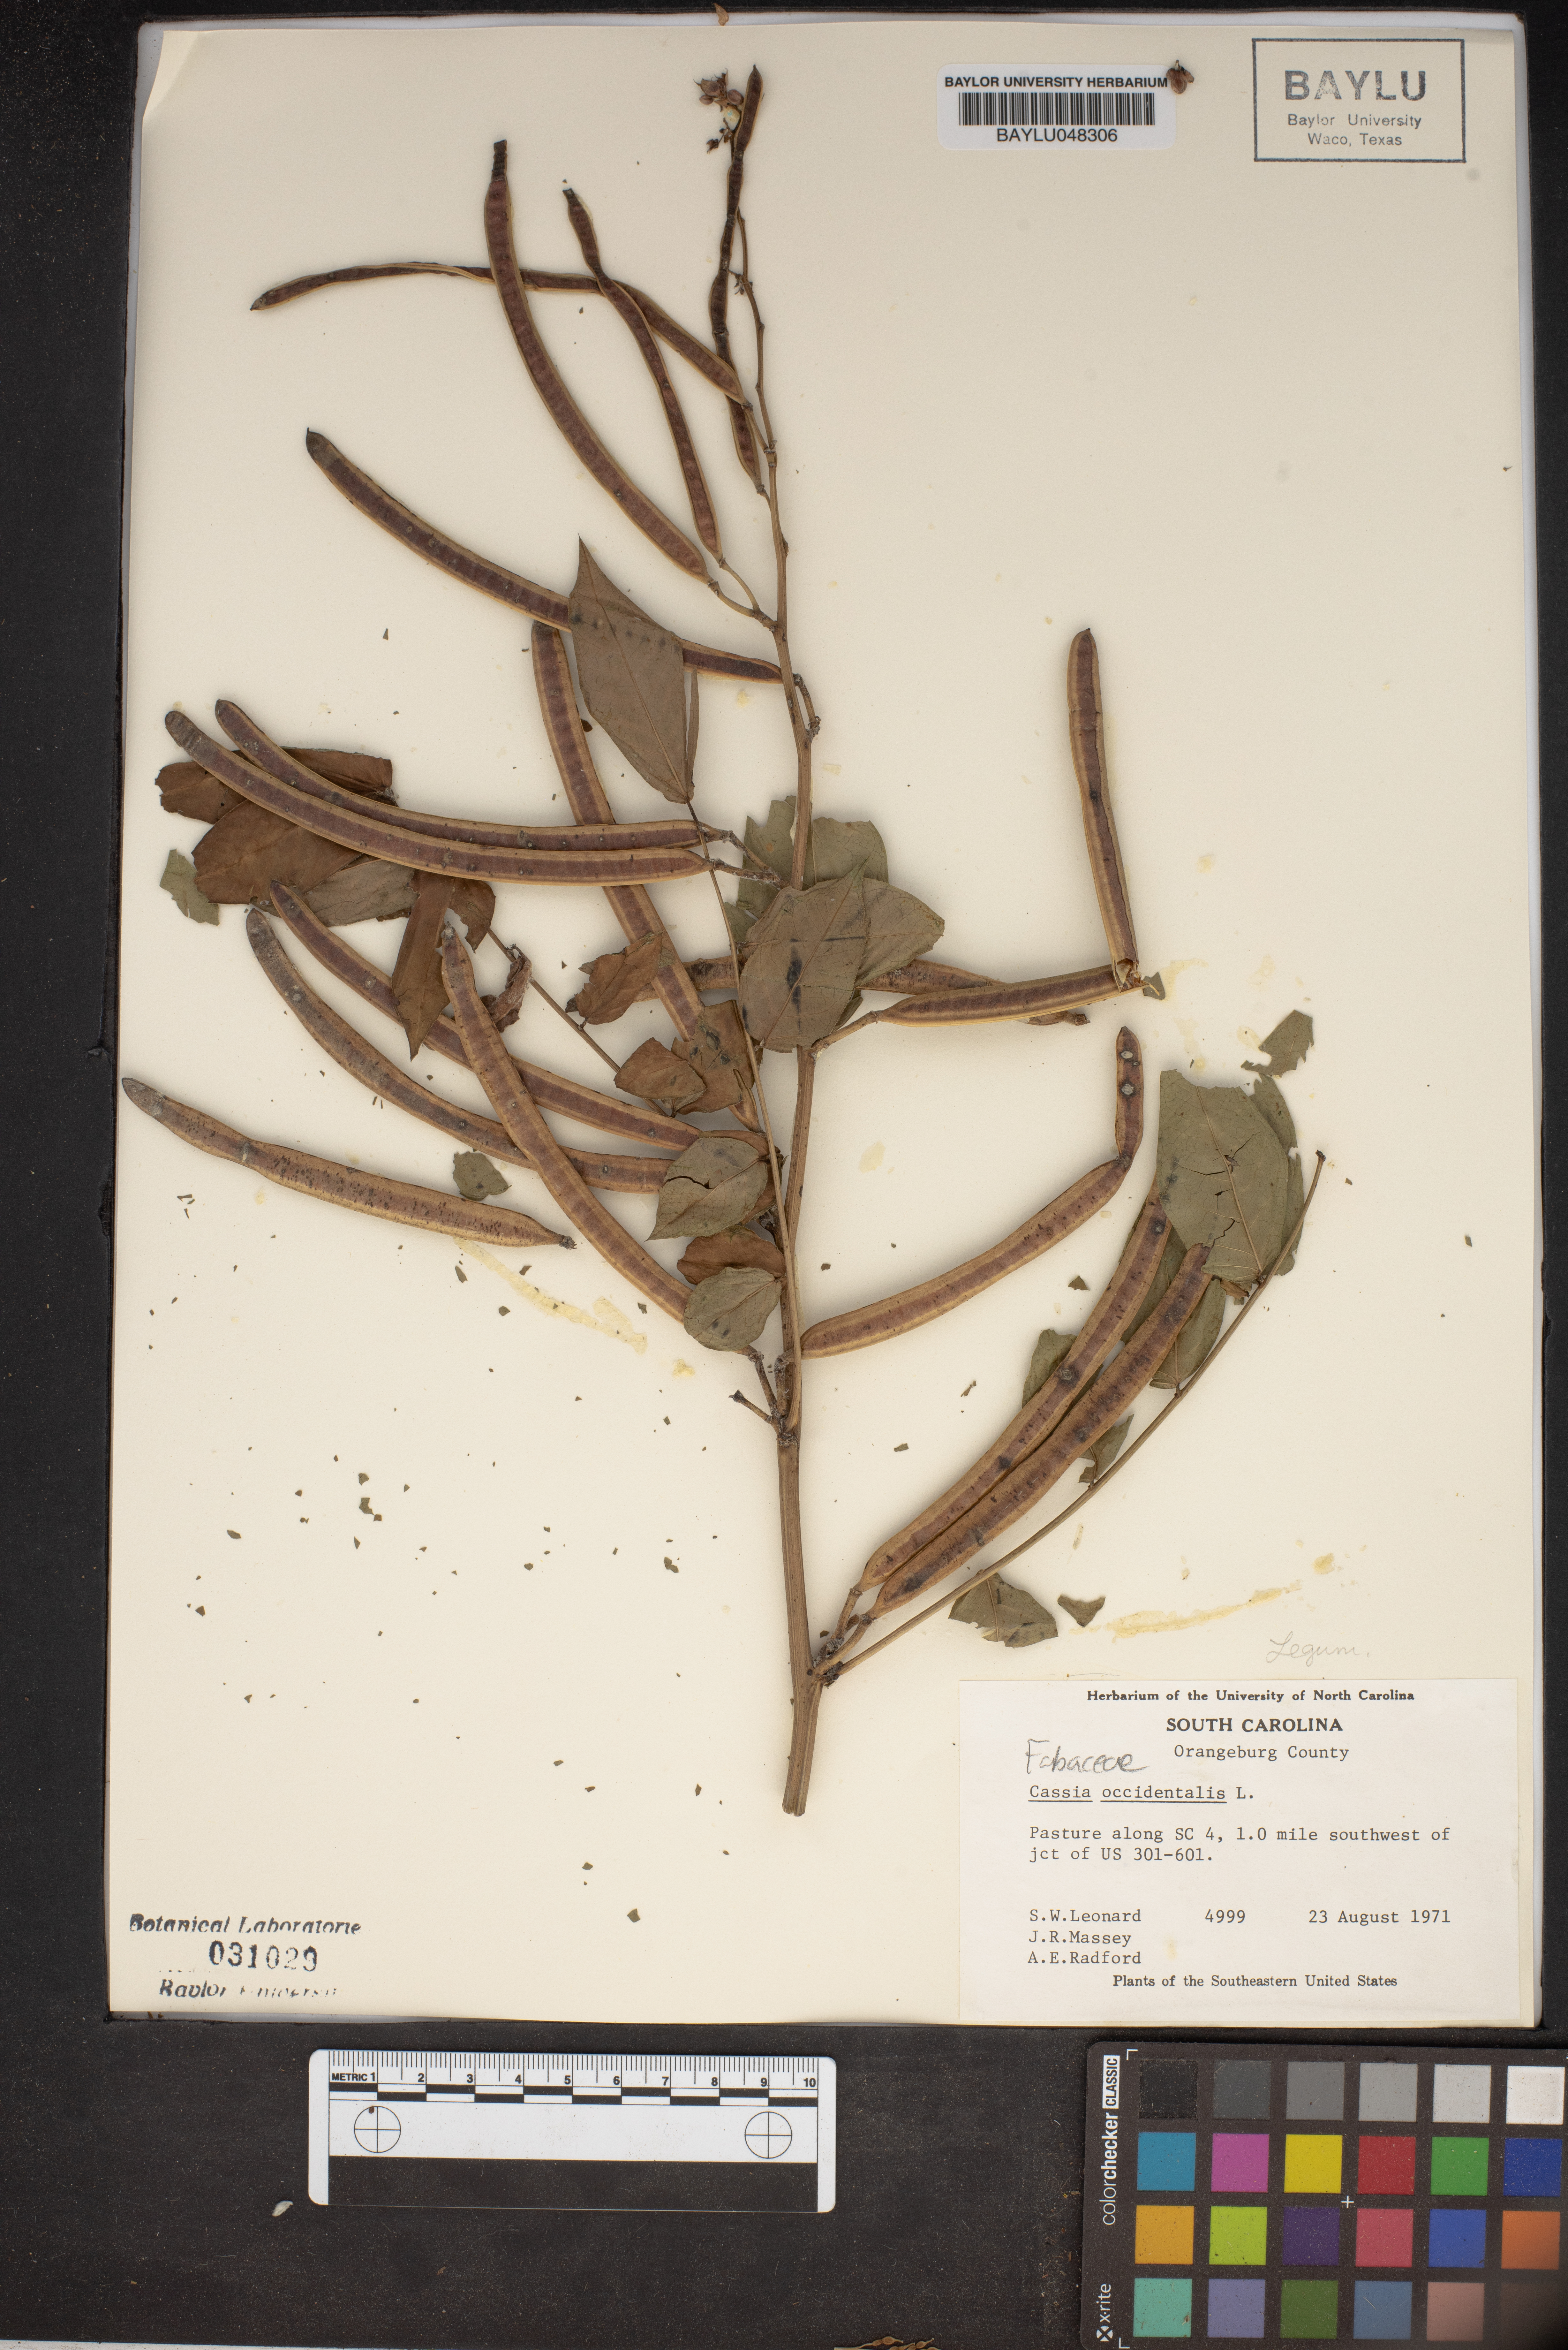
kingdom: Plantae
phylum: Tracheophyta
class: Magnoliopsida
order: Fabales
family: Fabaceae
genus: Senna
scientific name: Senna occidentalis
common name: Septicweed
